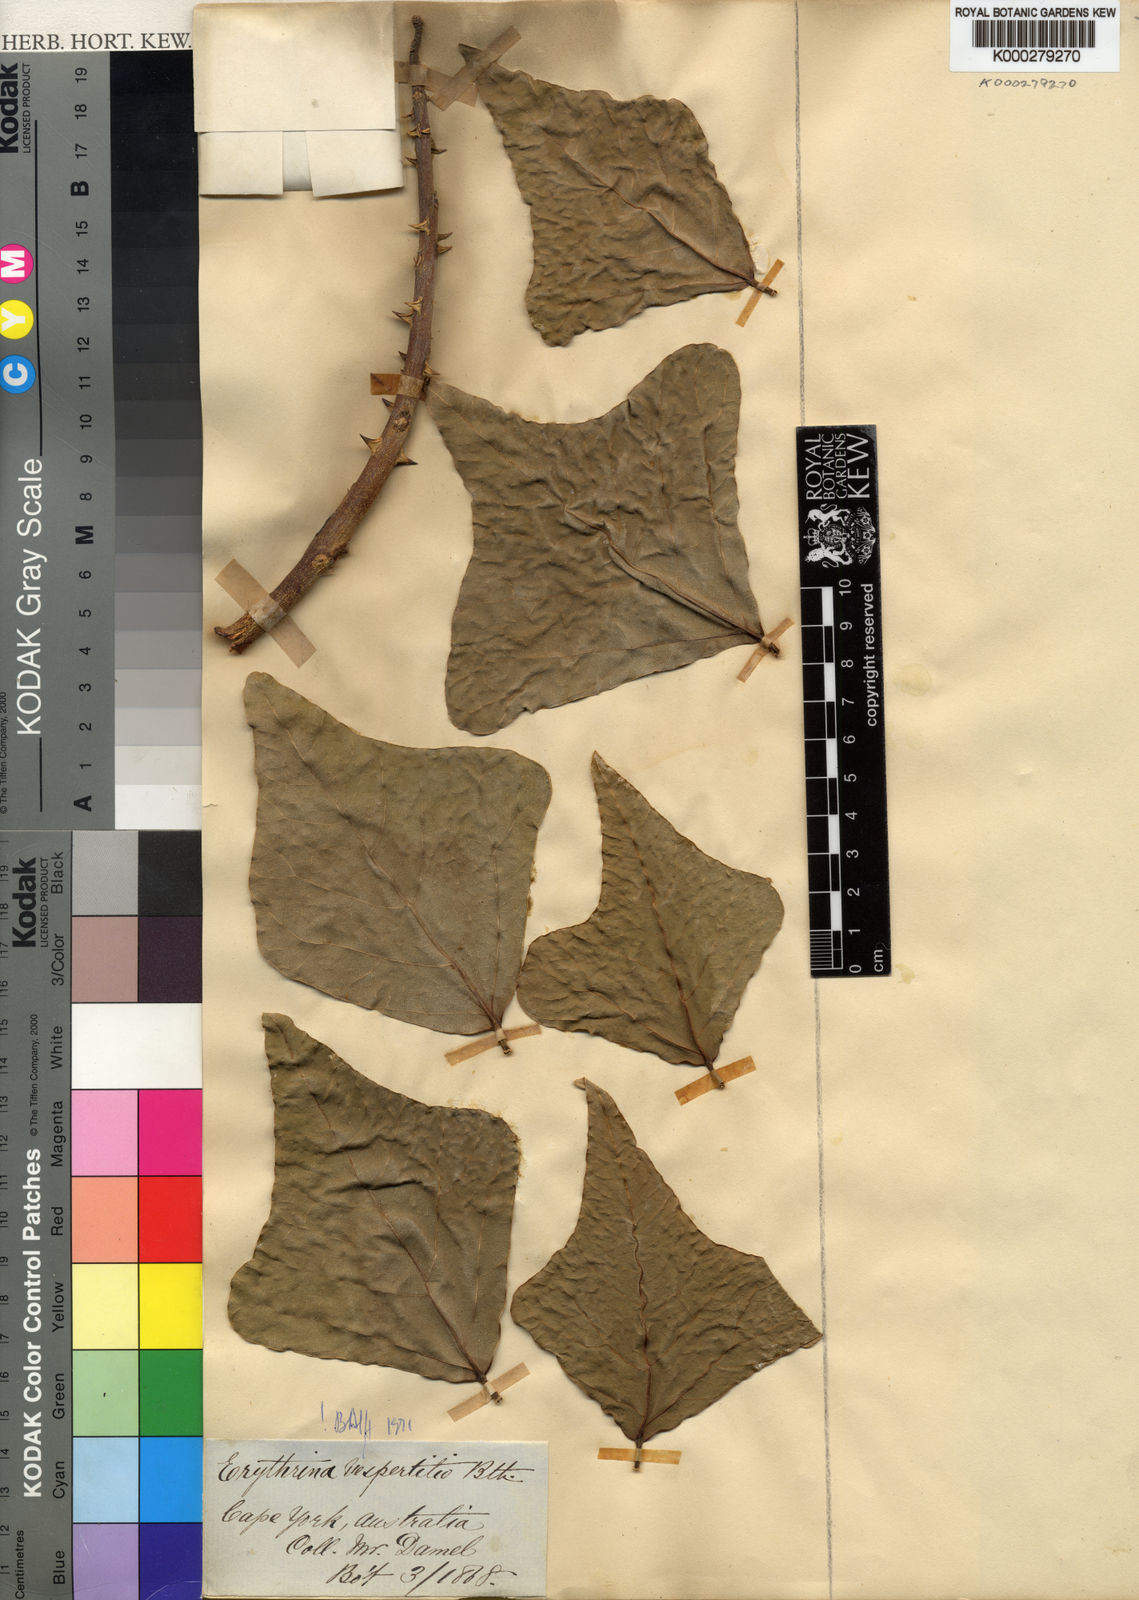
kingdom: Plantae
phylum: Tracheophyta
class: Magnoliopsida
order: Fabales
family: Fabaceae
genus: Erythrina
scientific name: Erythrina vespertilio
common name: Bat-wing coral tree
